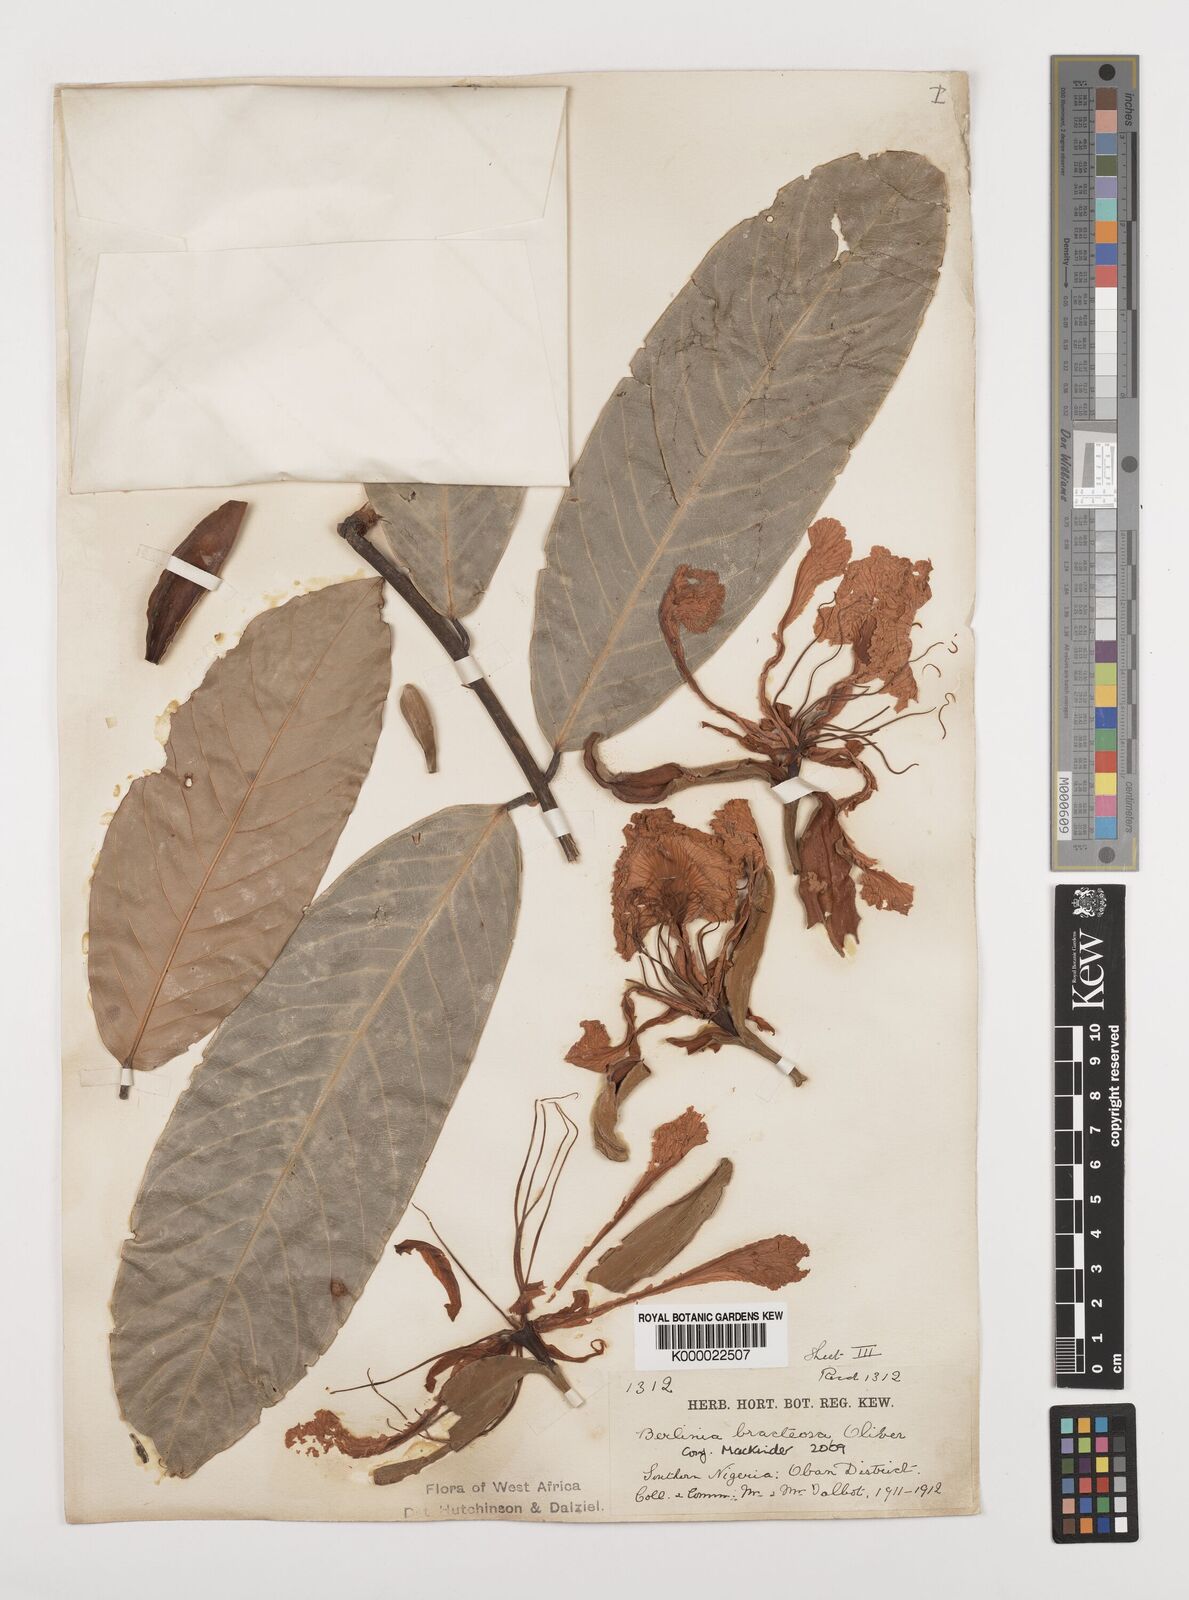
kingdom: Plantae
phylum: Tracheophyta
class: Magnoliopsida
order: Fabales
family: Fabaceae
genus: Berlinia
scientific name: Berlinia bracteosa
